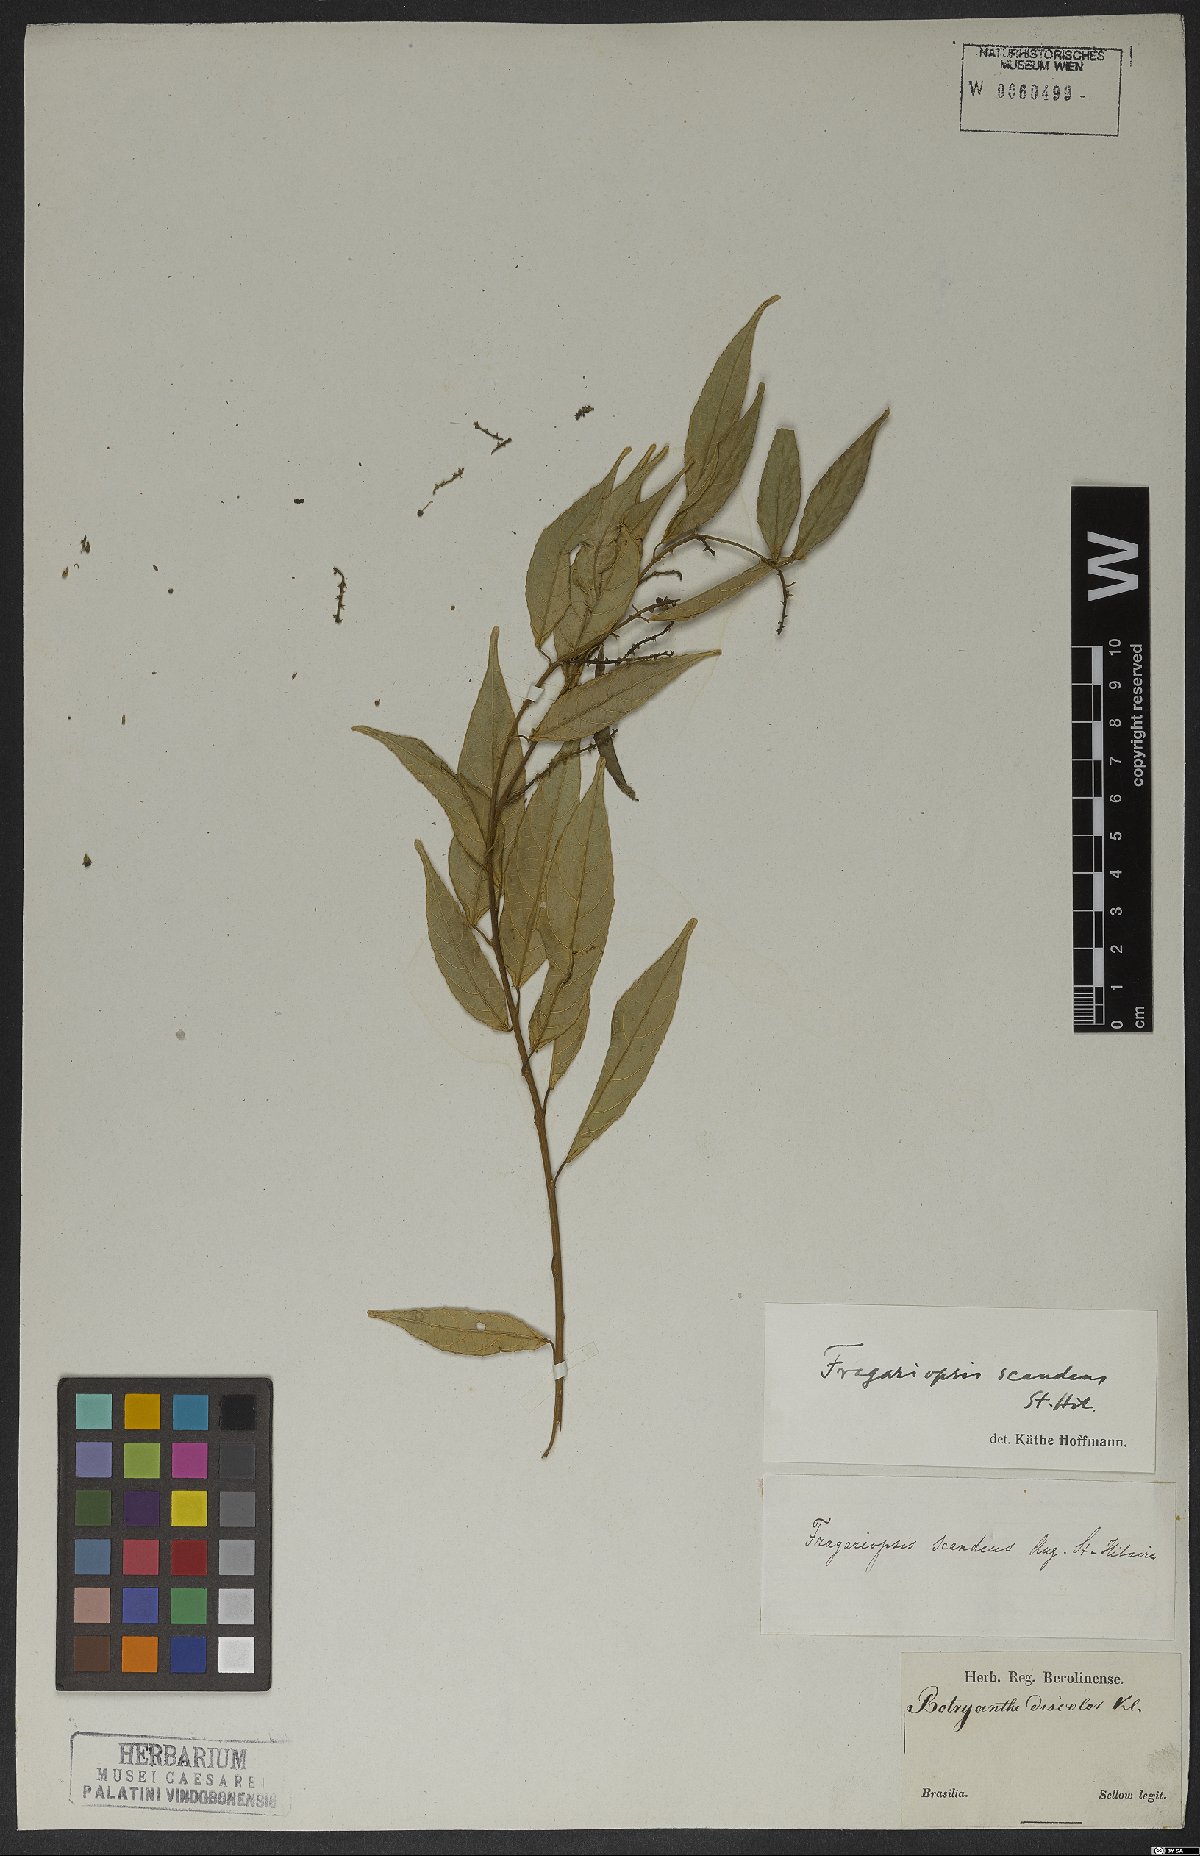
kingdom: Plantae
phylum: Tracheophyta
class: Magnoliopsida
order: Malpighiales
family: Euphorbiaceae
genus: Plukenetia
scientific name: Plukenetia serrata
